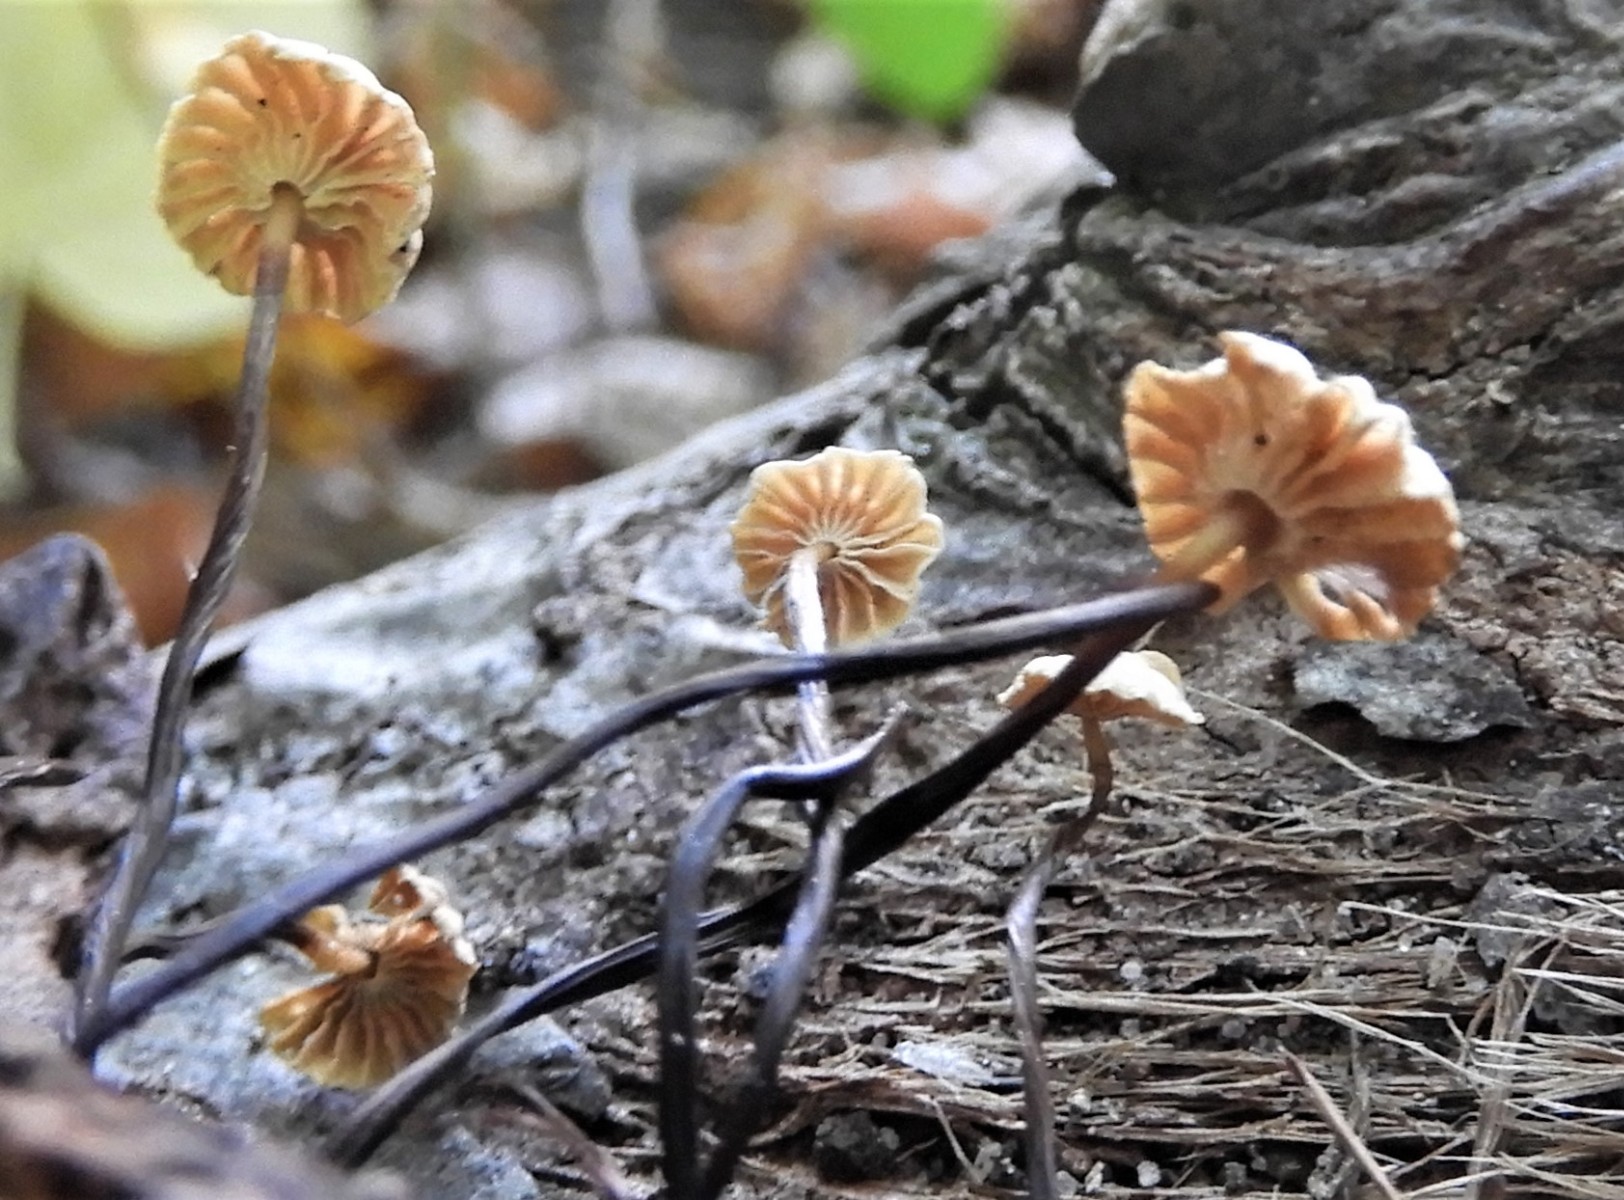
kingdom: Fungi
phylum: Basidiomycota
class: Agaricomycetes
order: Agaricales
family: Marasmiaceae
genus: Marasmius
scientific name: Marasmius rotula
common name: hjul-bruskhat
